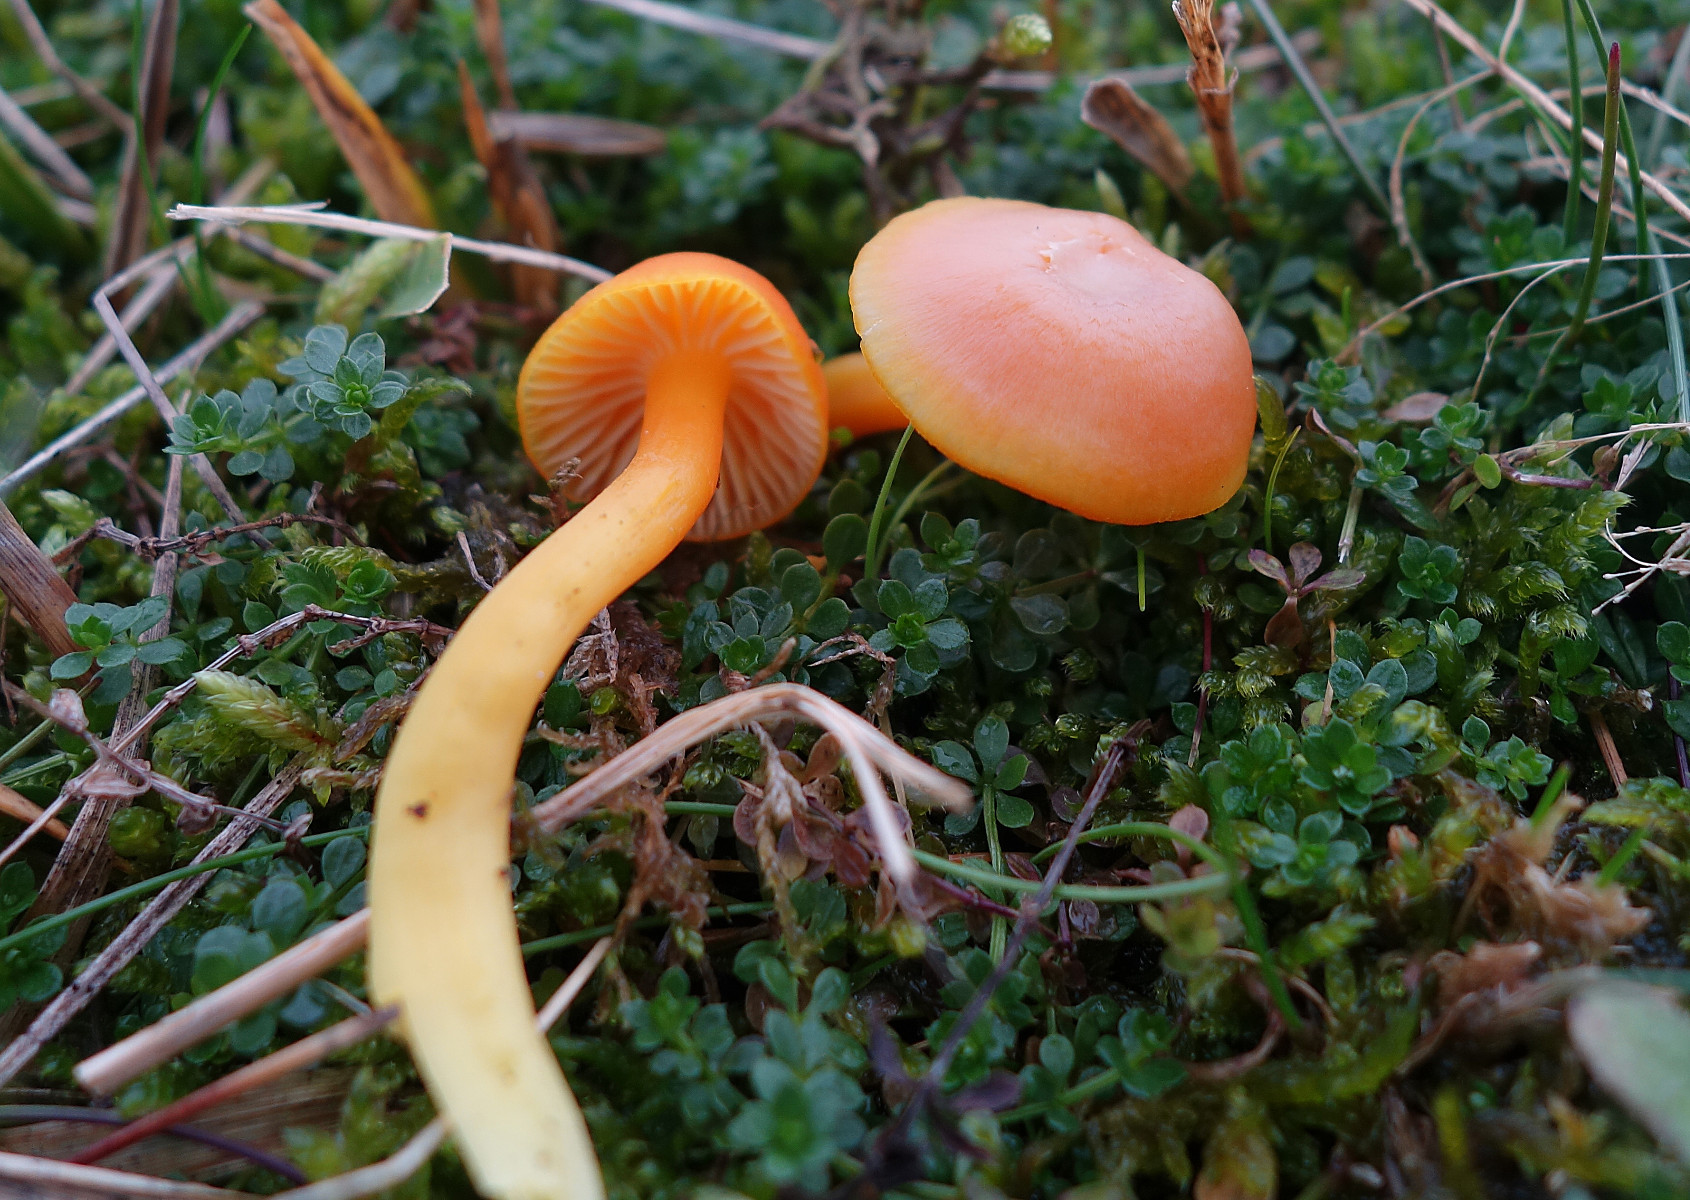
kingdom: Fungi
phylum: Basidiomycota
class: Agaricomycetes
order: Agaricales
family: Hygrophoraceae
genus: Hygrocybe
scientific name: Hygrocybe reidii
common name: honning-vokshat
